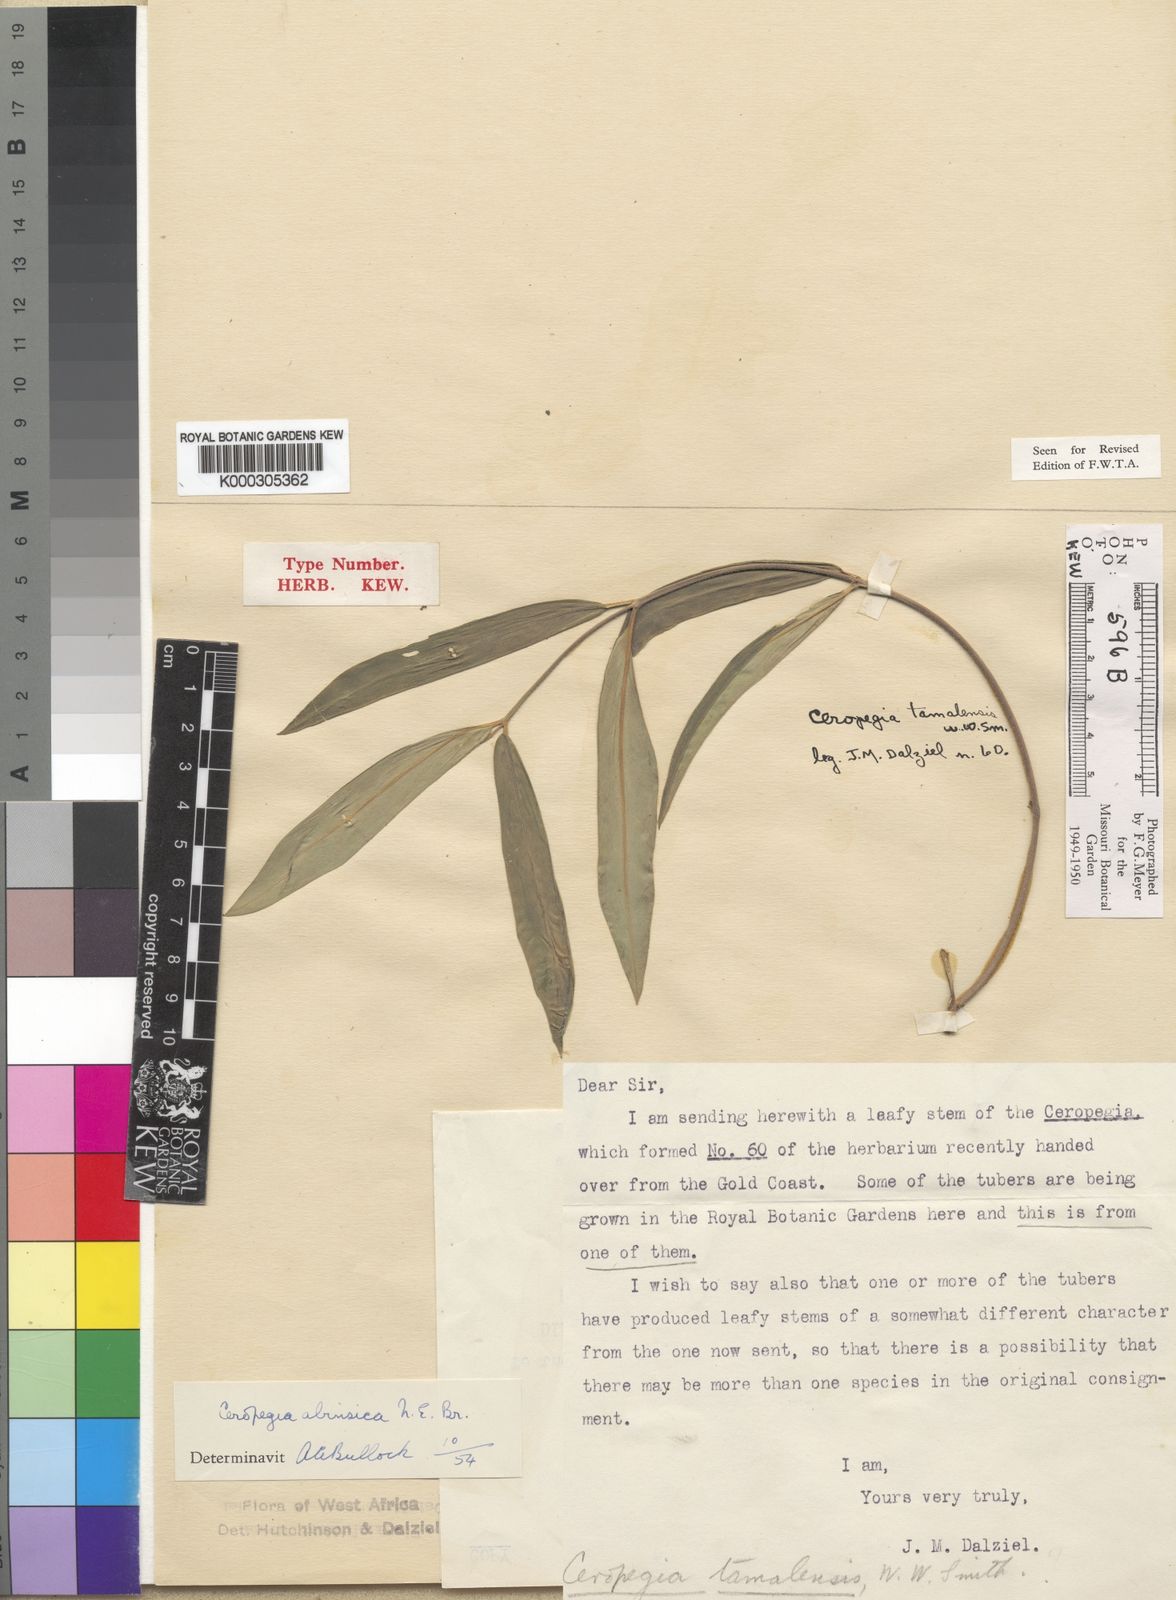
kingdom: Plantae
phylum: Tracheophyta
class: Magnoliopsida
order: Gentianales
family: Apocynaceae
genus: Ceropegia
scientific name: Ceropegia campanulata
